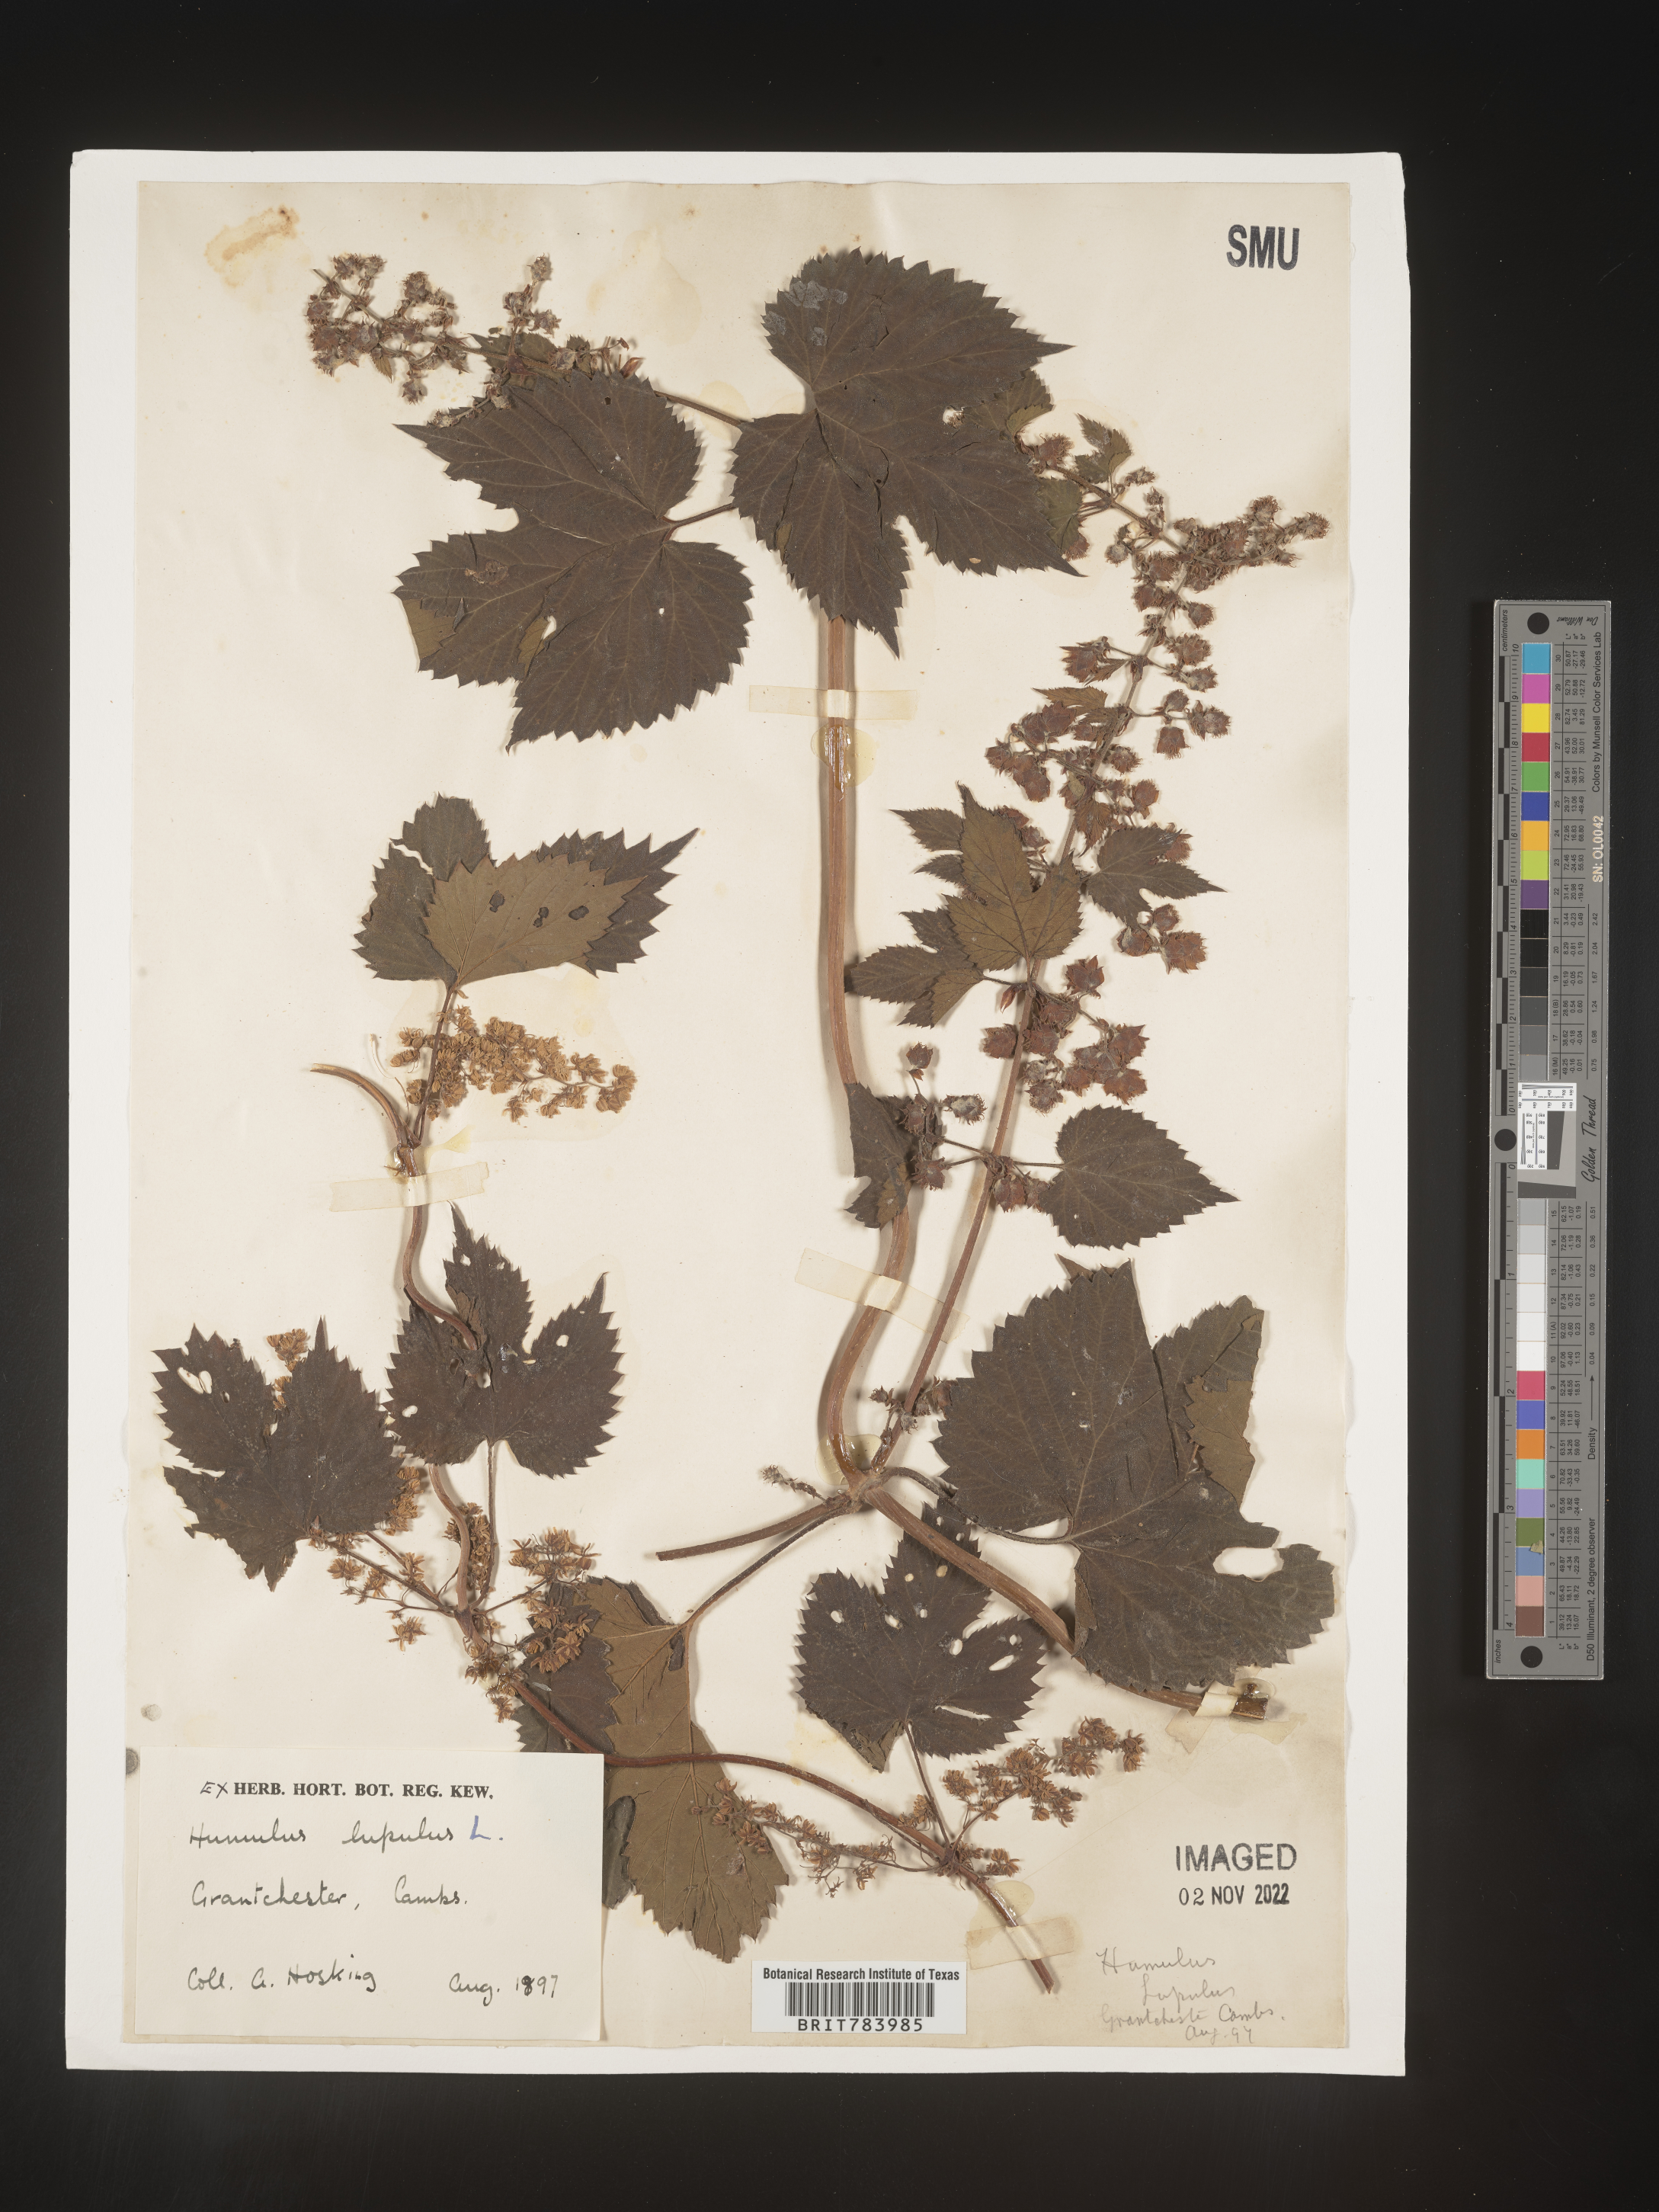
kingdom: Plantae
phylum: Tracheophyta
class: Magnoliopsida
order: Rosales
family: Cannabaceae
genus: Humulus
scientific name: Humulus
